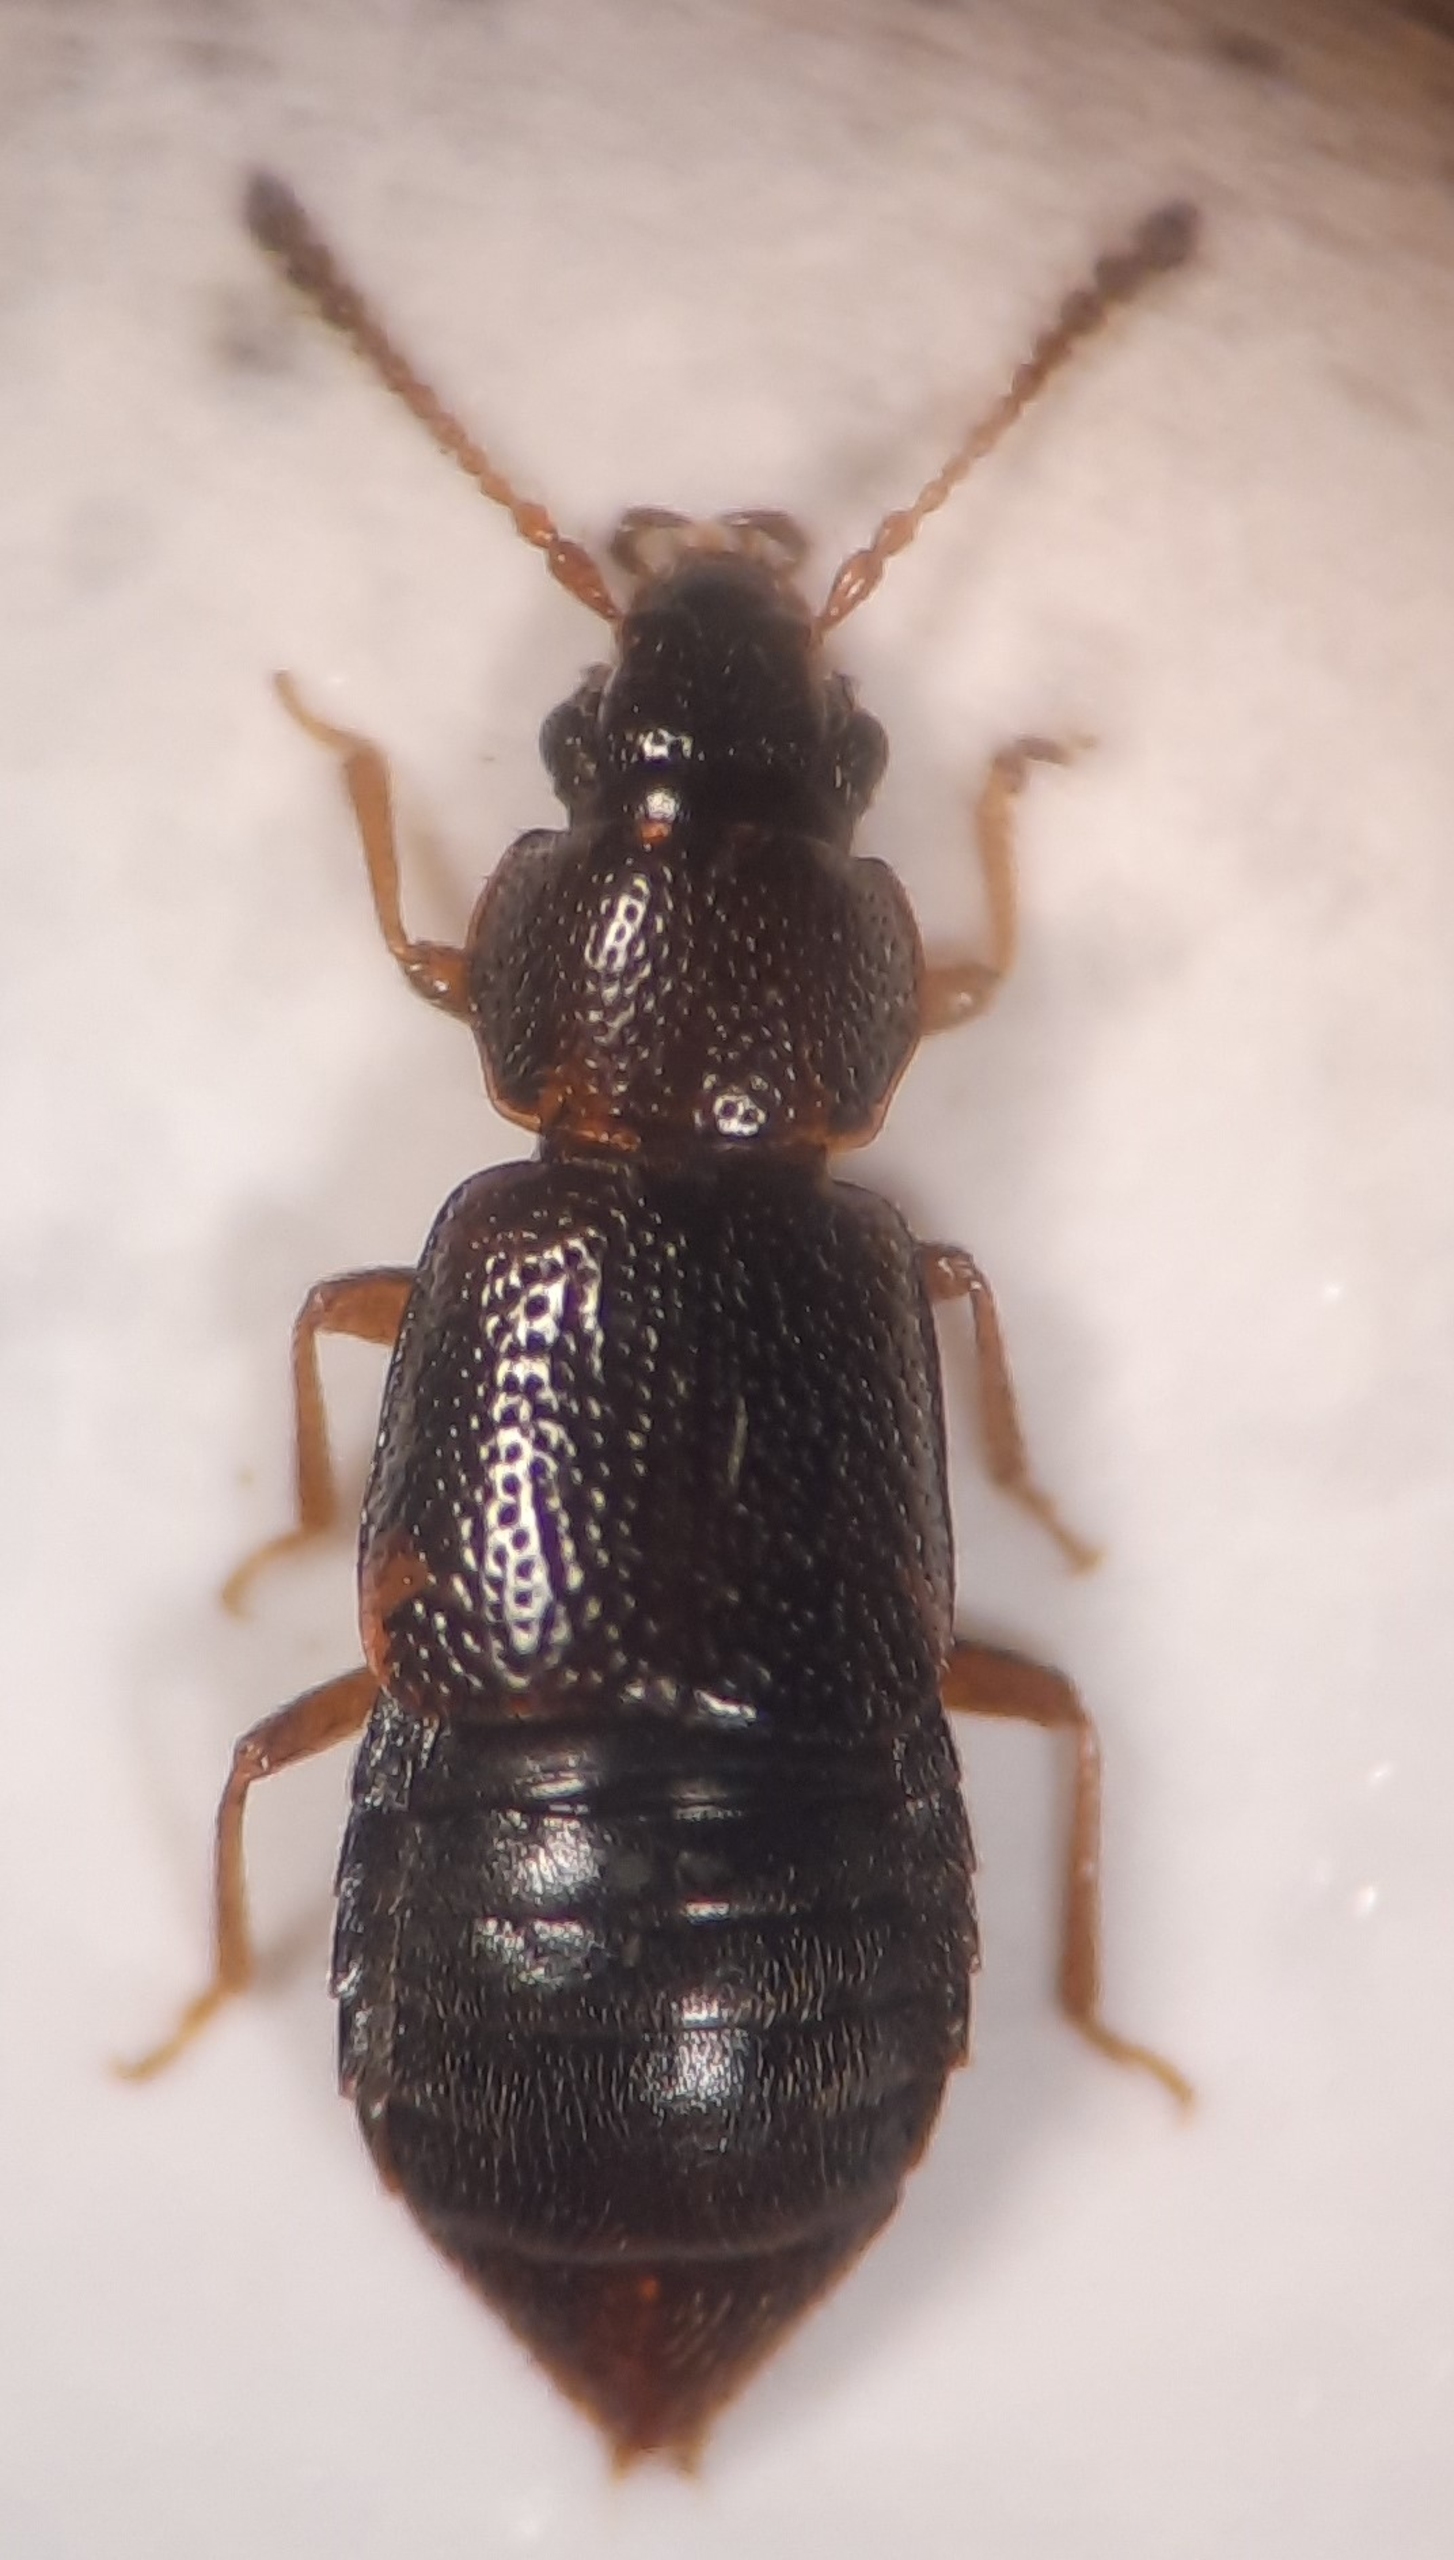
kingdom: Animalia
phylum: Arthropoda
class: Insecta
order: Coleoptera
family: Staphylinidae
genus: Pycnoglypta
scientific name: Pycnoglypta lurida
